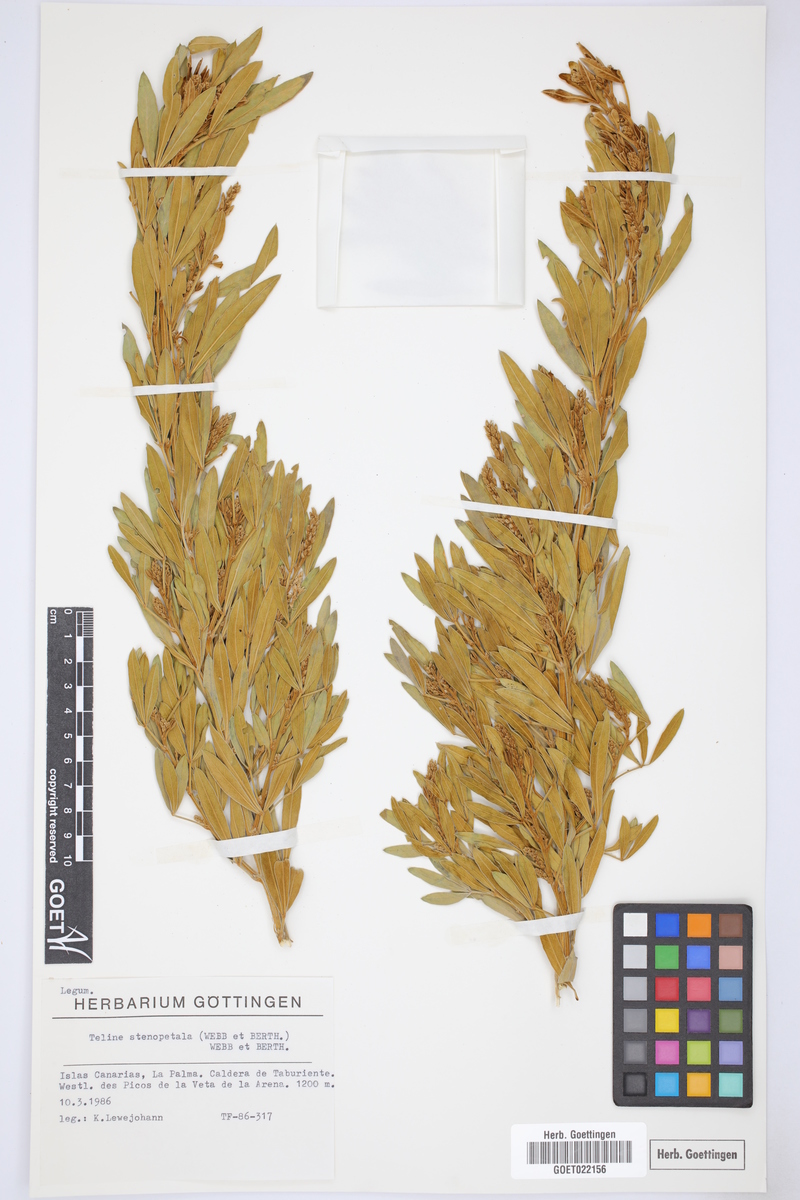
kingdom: Plantae
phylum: Tracheophyta
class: Magnoliopsida
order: Fabales
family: Fabaceae
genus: Genista
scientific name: Genista stenopetala
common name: Leafy broom
